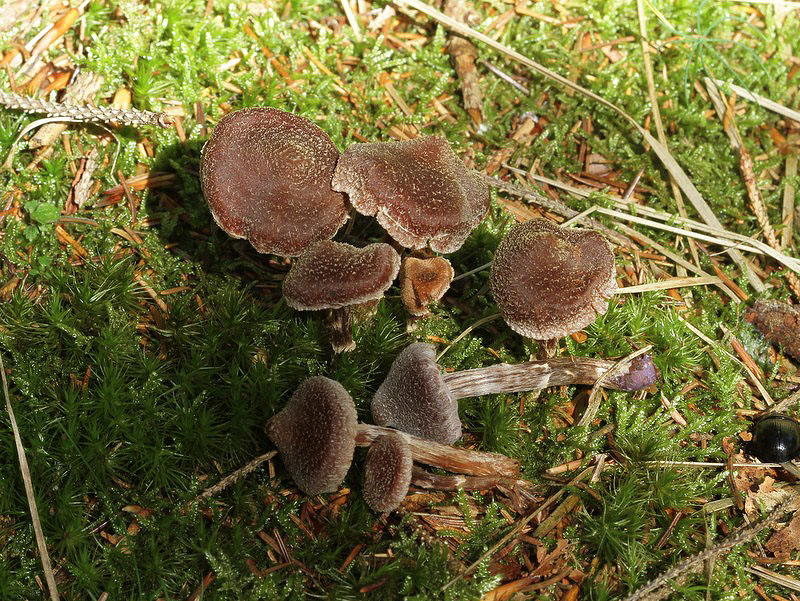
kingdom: Fungi
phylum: Basidiomycota
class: Agaricomycetes
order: Agaricales
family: Cortinariaceae
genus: Cortinarius
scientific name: Cortinarius
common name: pelargonie-slørhat
